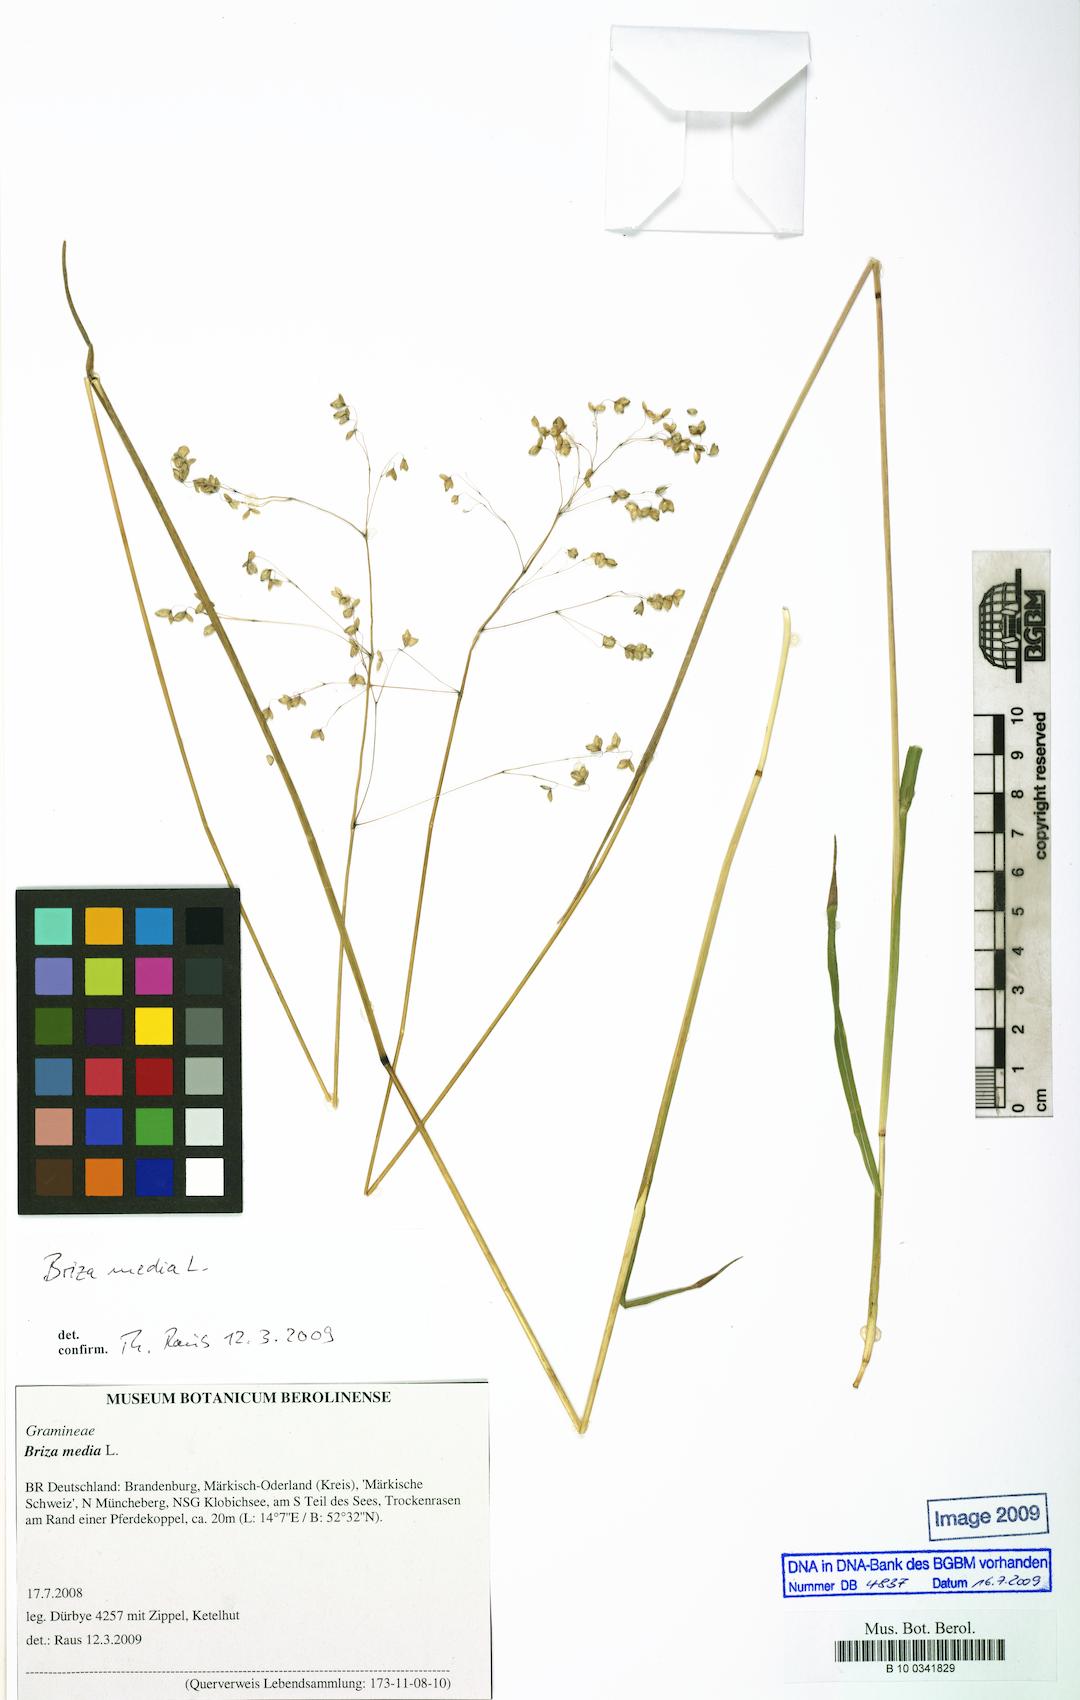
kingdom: Plantae
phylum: Tracheophyta
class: Liliopsida
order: Poales
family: Poaceae
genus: Briza
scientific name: Briza media
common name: Quaking grass
